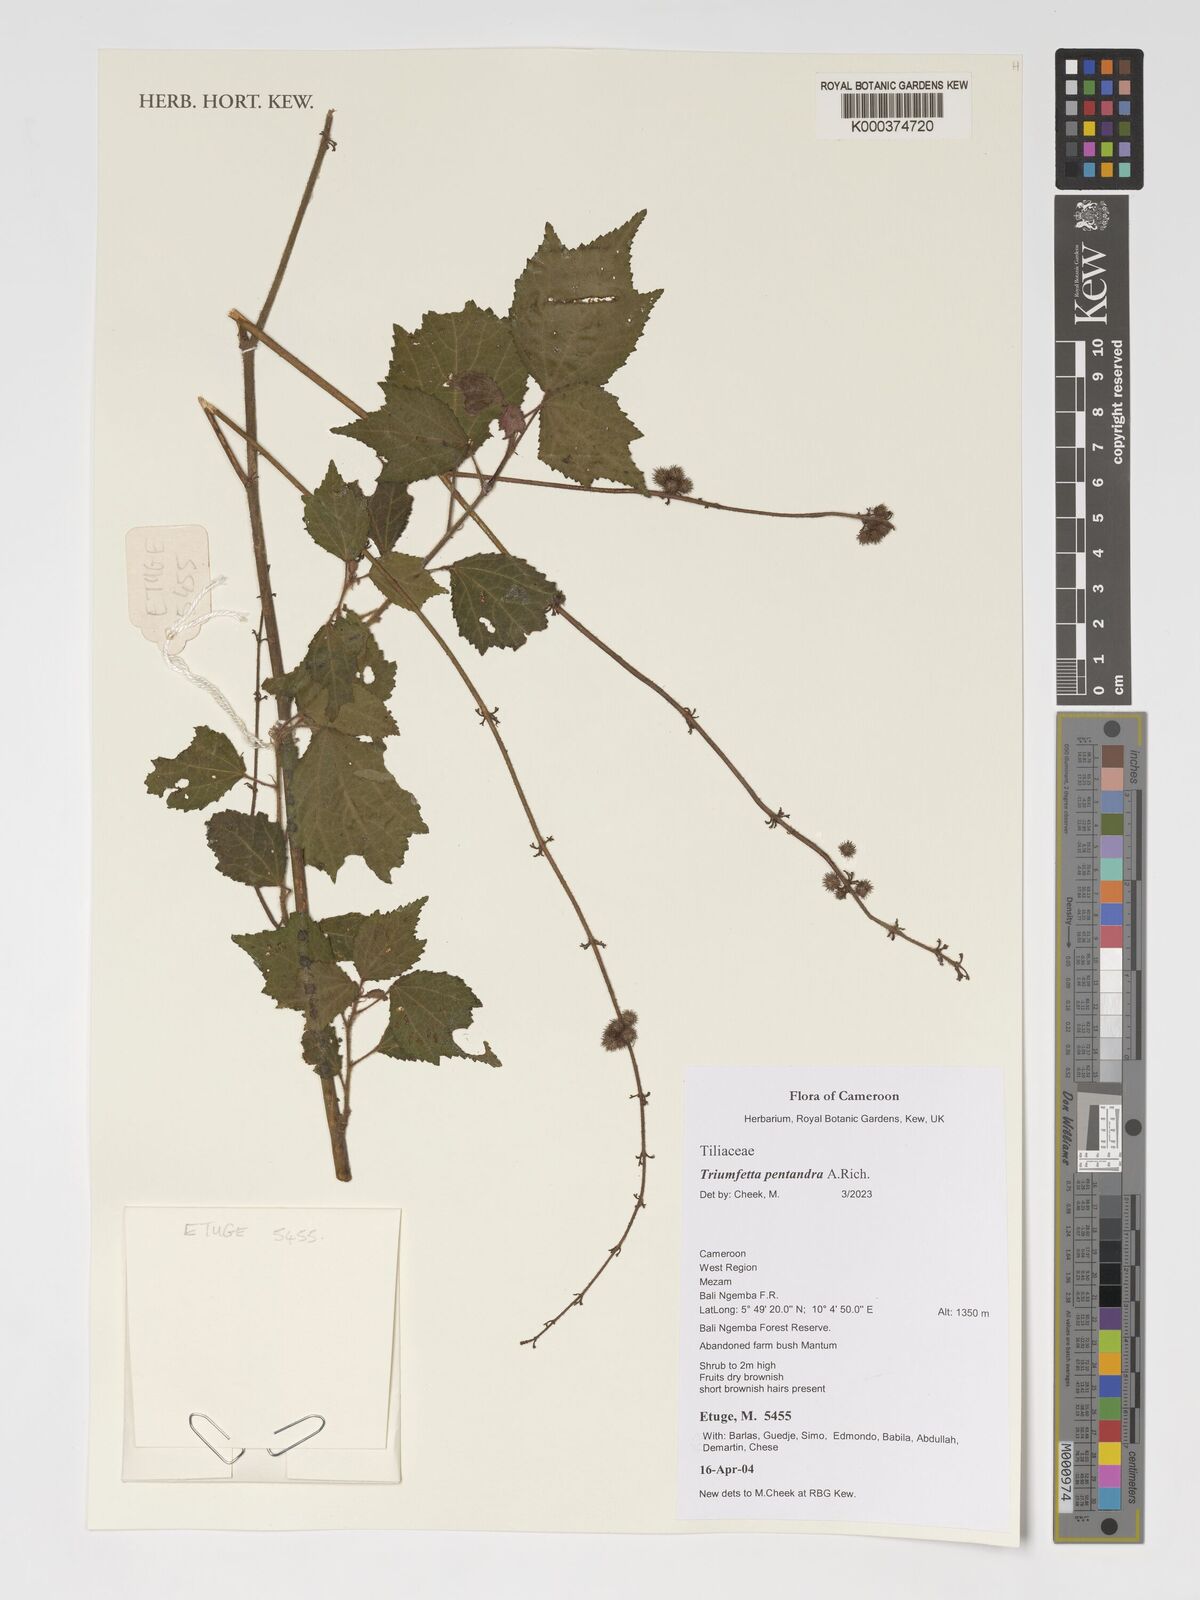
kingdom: Plantae
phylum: Tracheophyta
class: Magnoliopsida
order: Malvales
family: Malvaceae
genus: Triumfetta
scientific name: Triumfetta pentandra
